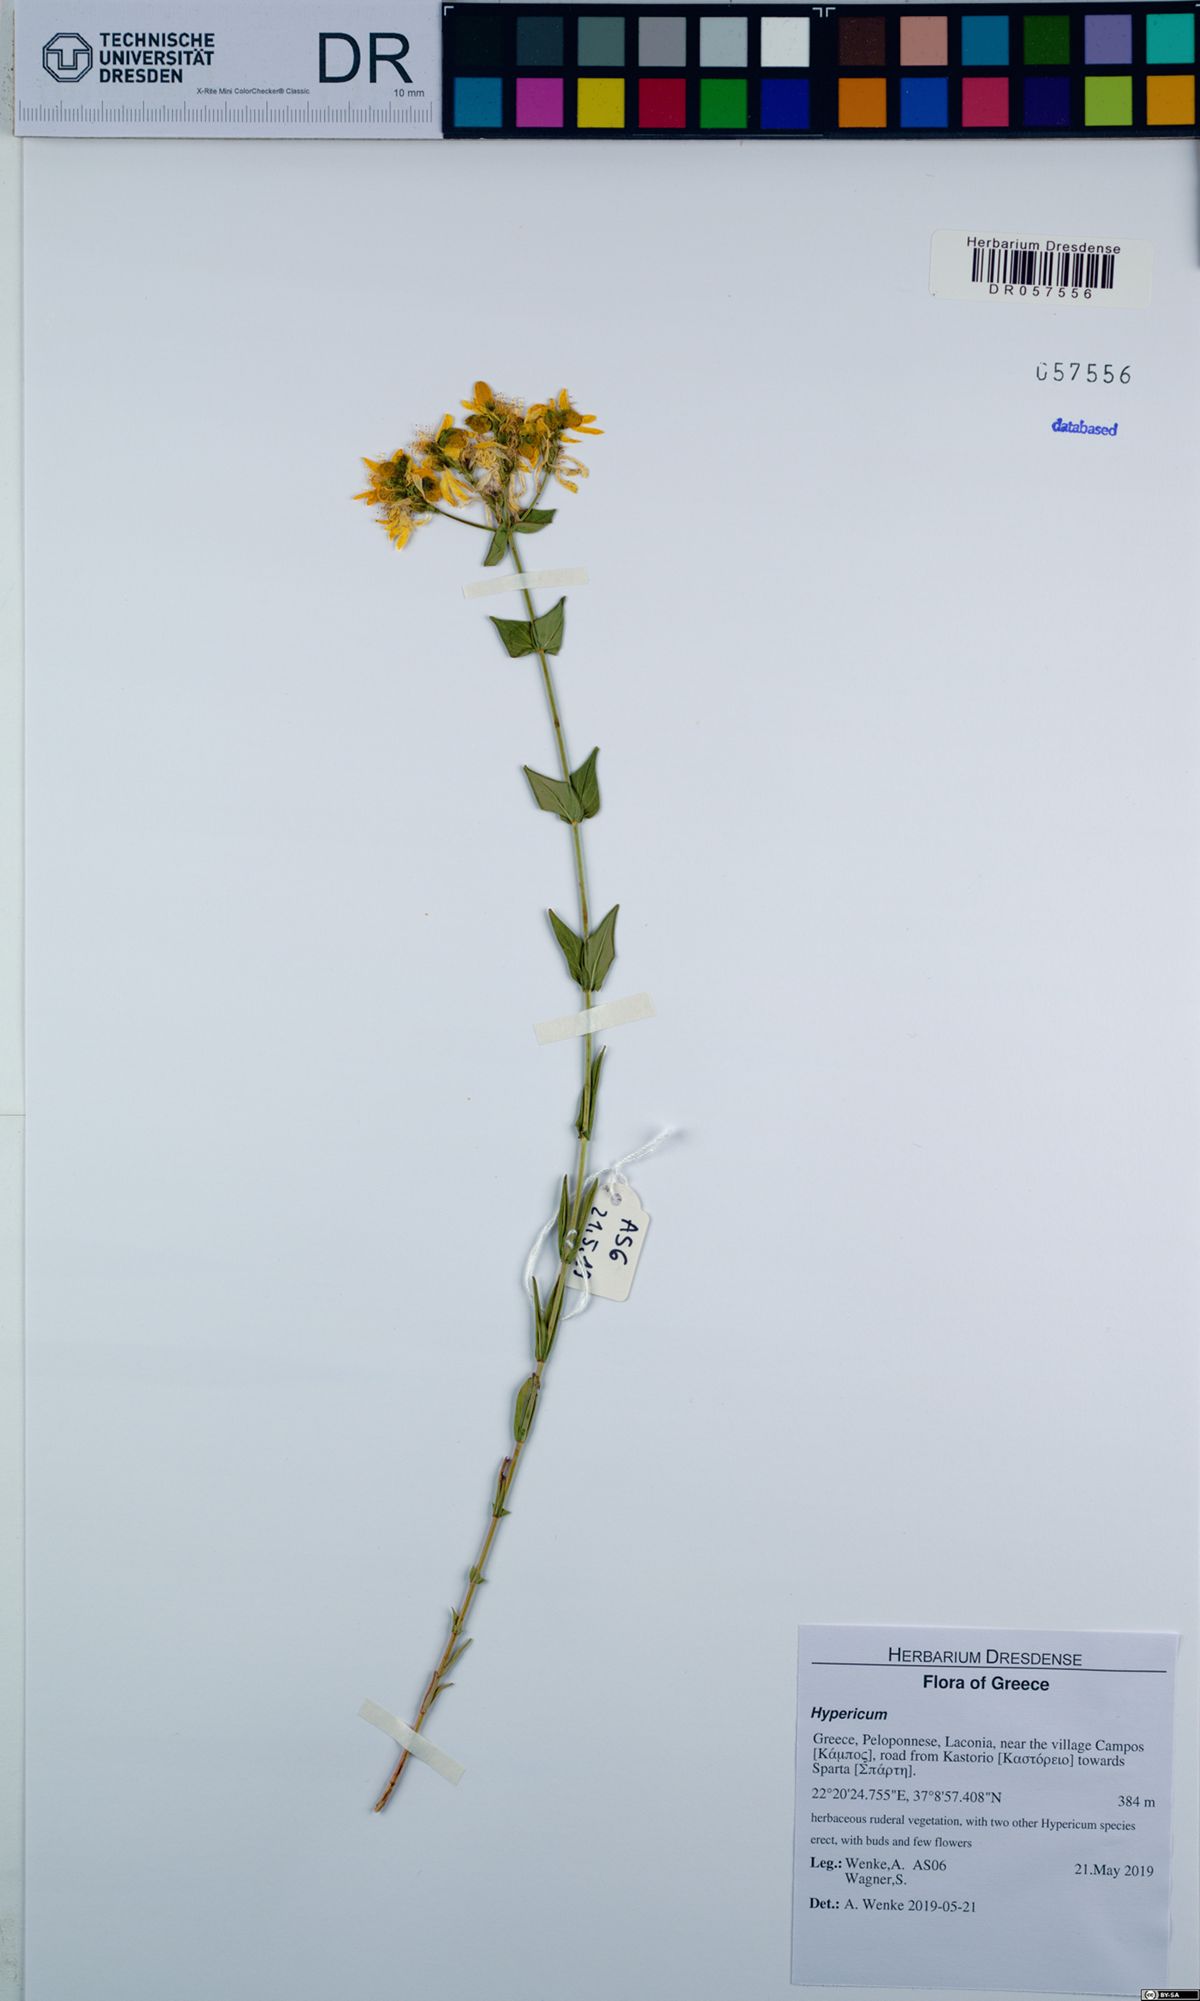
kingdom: Plantae
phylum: Tracheophyta
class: Magnoliopsida
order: Malpighiales
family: Hypericaceae
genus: Hypericum
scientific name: Hypericum perfoliatum
